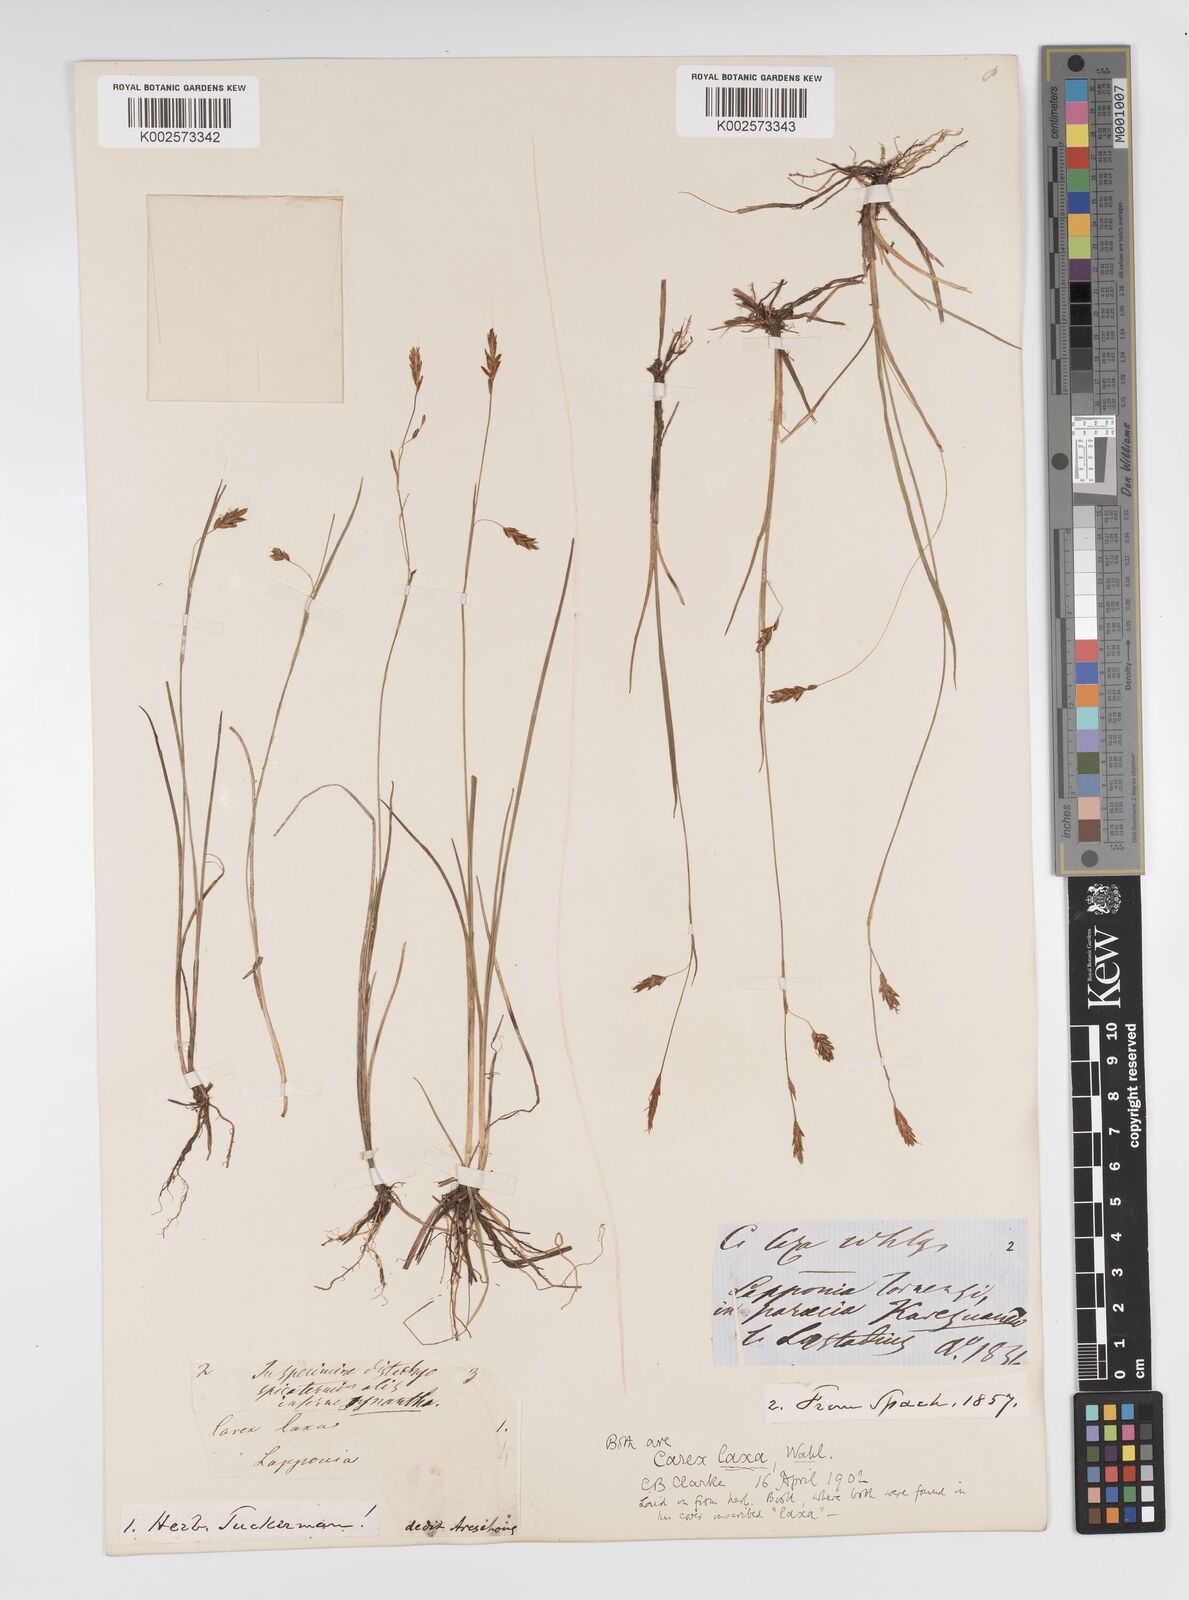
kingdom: Plantae
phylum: Tracheophyta
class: Liliopsida
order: Poales
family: Cyperaceae
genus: Carex
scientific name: Carex laxa
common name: Weak sedge
